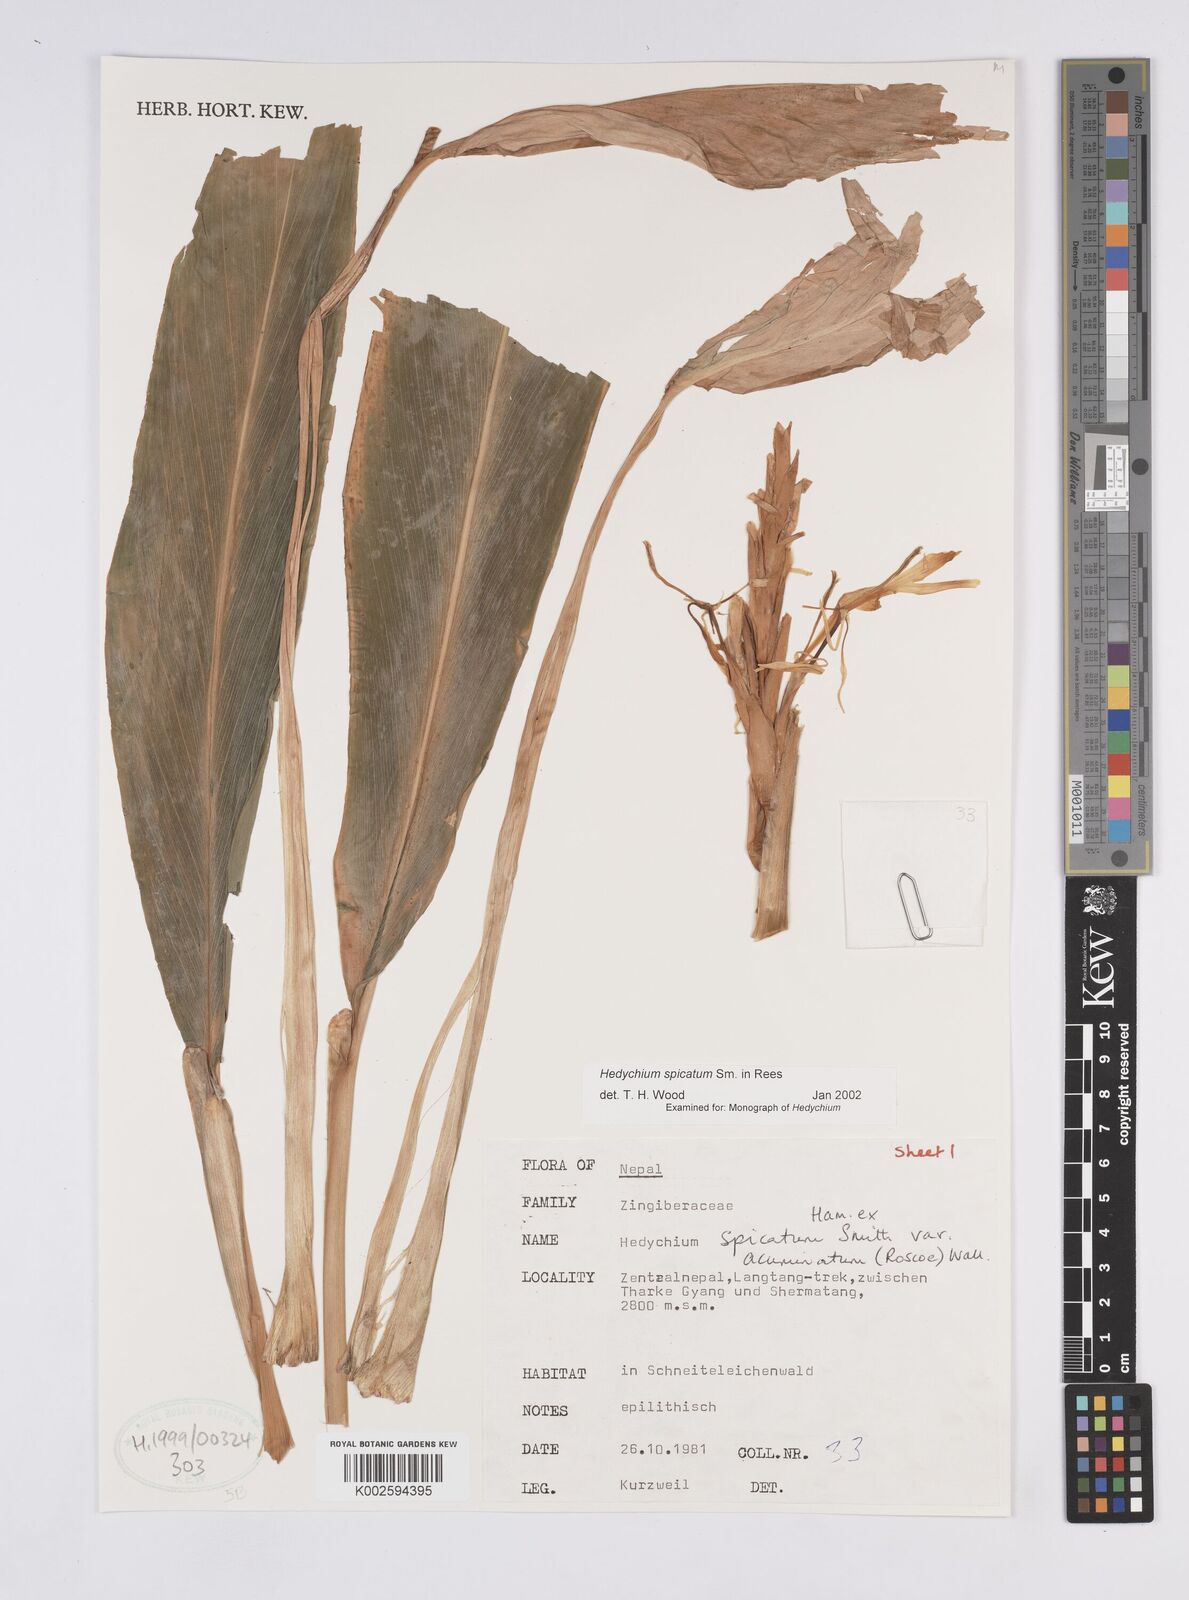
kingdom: Plantae
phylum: Tracheophyta
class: Liliopsida
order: Zingiberales
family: Zingiberaceae
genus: Hedychium
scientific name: Hedychium spicatum
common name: Spiked ginger-lily
